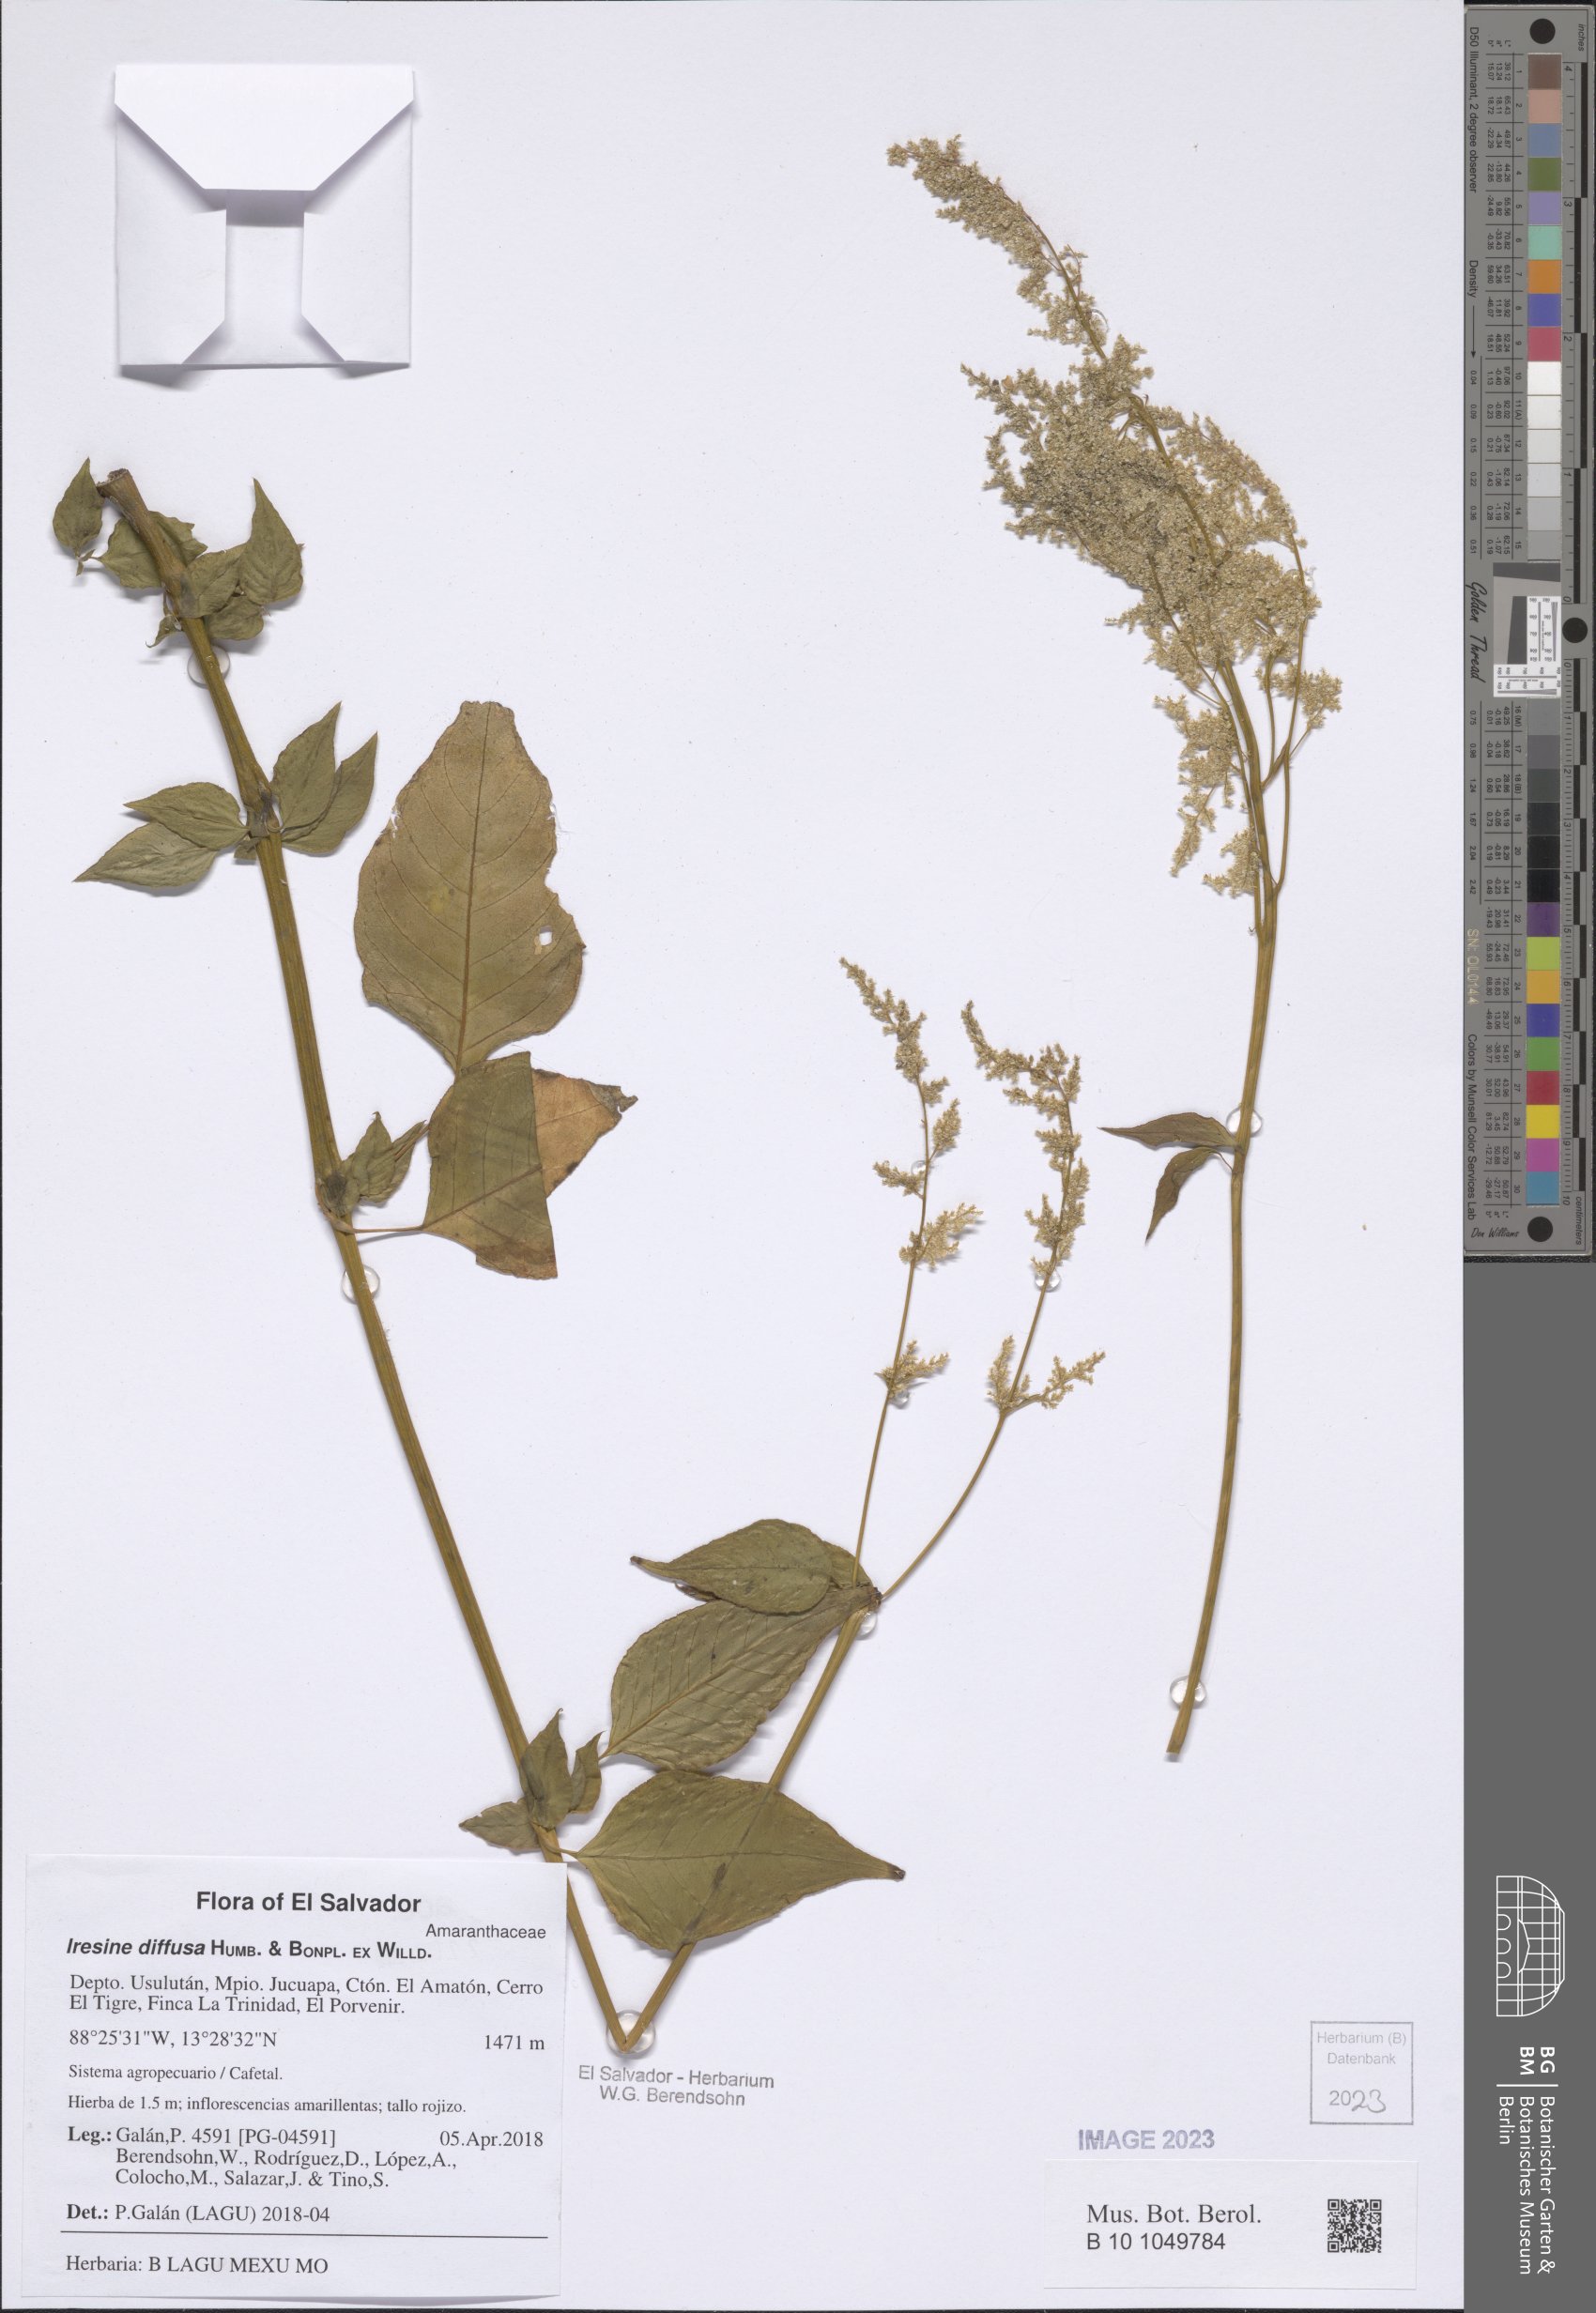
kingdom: Plantae
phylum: Tracheophyta
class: Magnoliopsida
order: Caryophyllales
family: Amaranthaceae
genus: Iresine
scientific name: Iresine diffusa
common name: Juba's-bush
